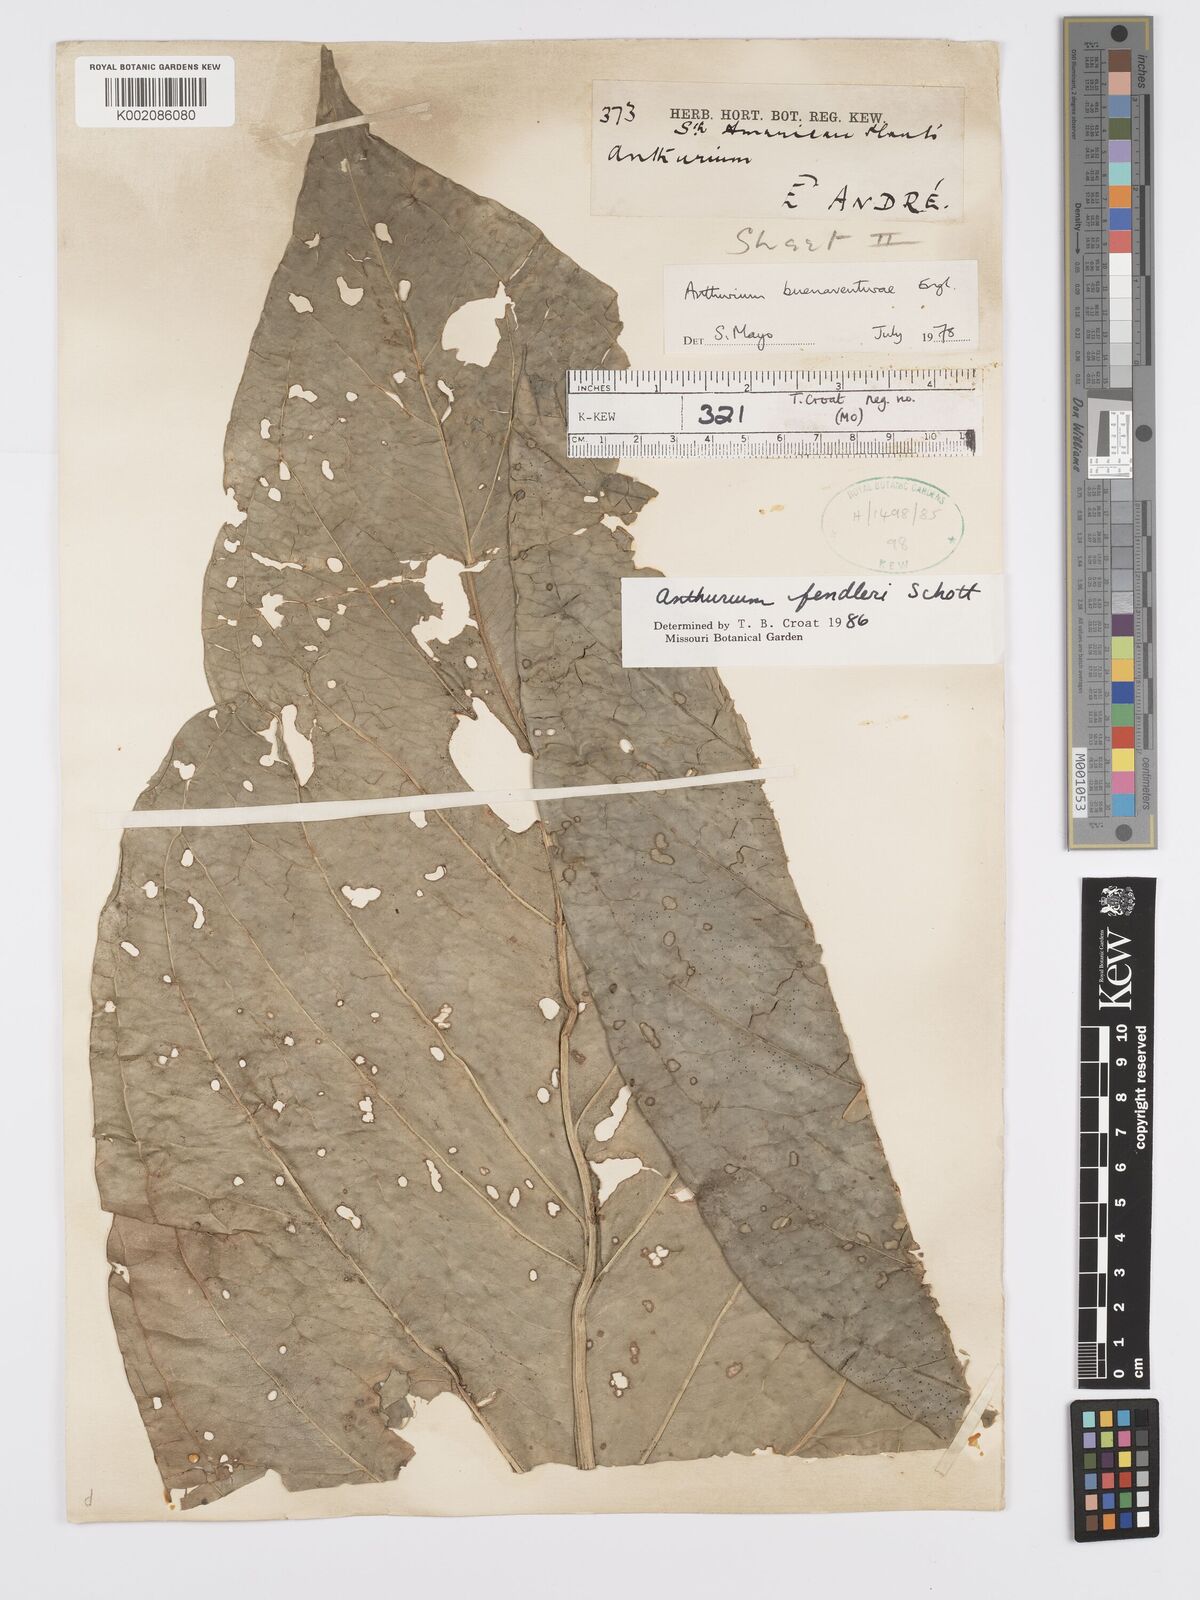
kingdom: Plantae
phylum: Tracheophyta
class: Liliopsida
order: Alismatales
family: Araceae
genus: Anthurium
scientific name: Anthurium fendleri
